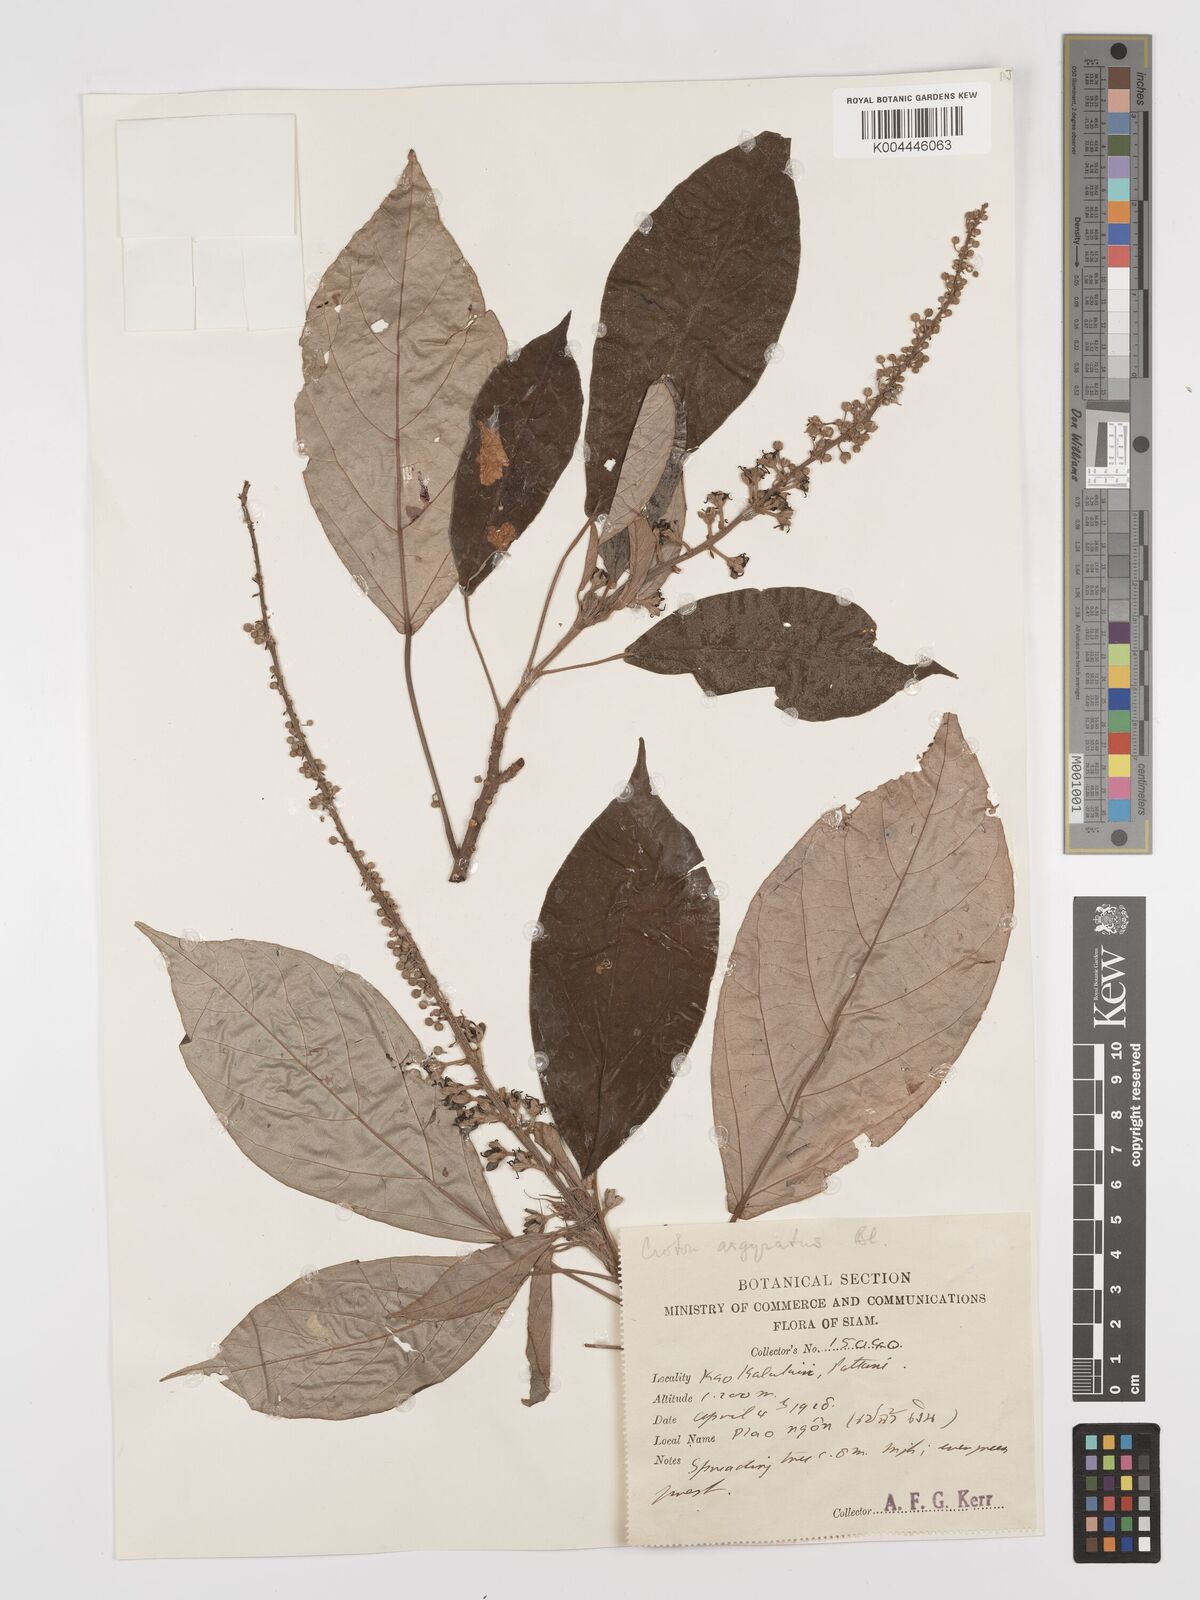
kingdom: Plantae
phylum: Tracheophyta
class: Magnoliopsida
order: Malpighiales
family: Euphorbiaceae
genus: Croton
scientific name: Croton argyratus
